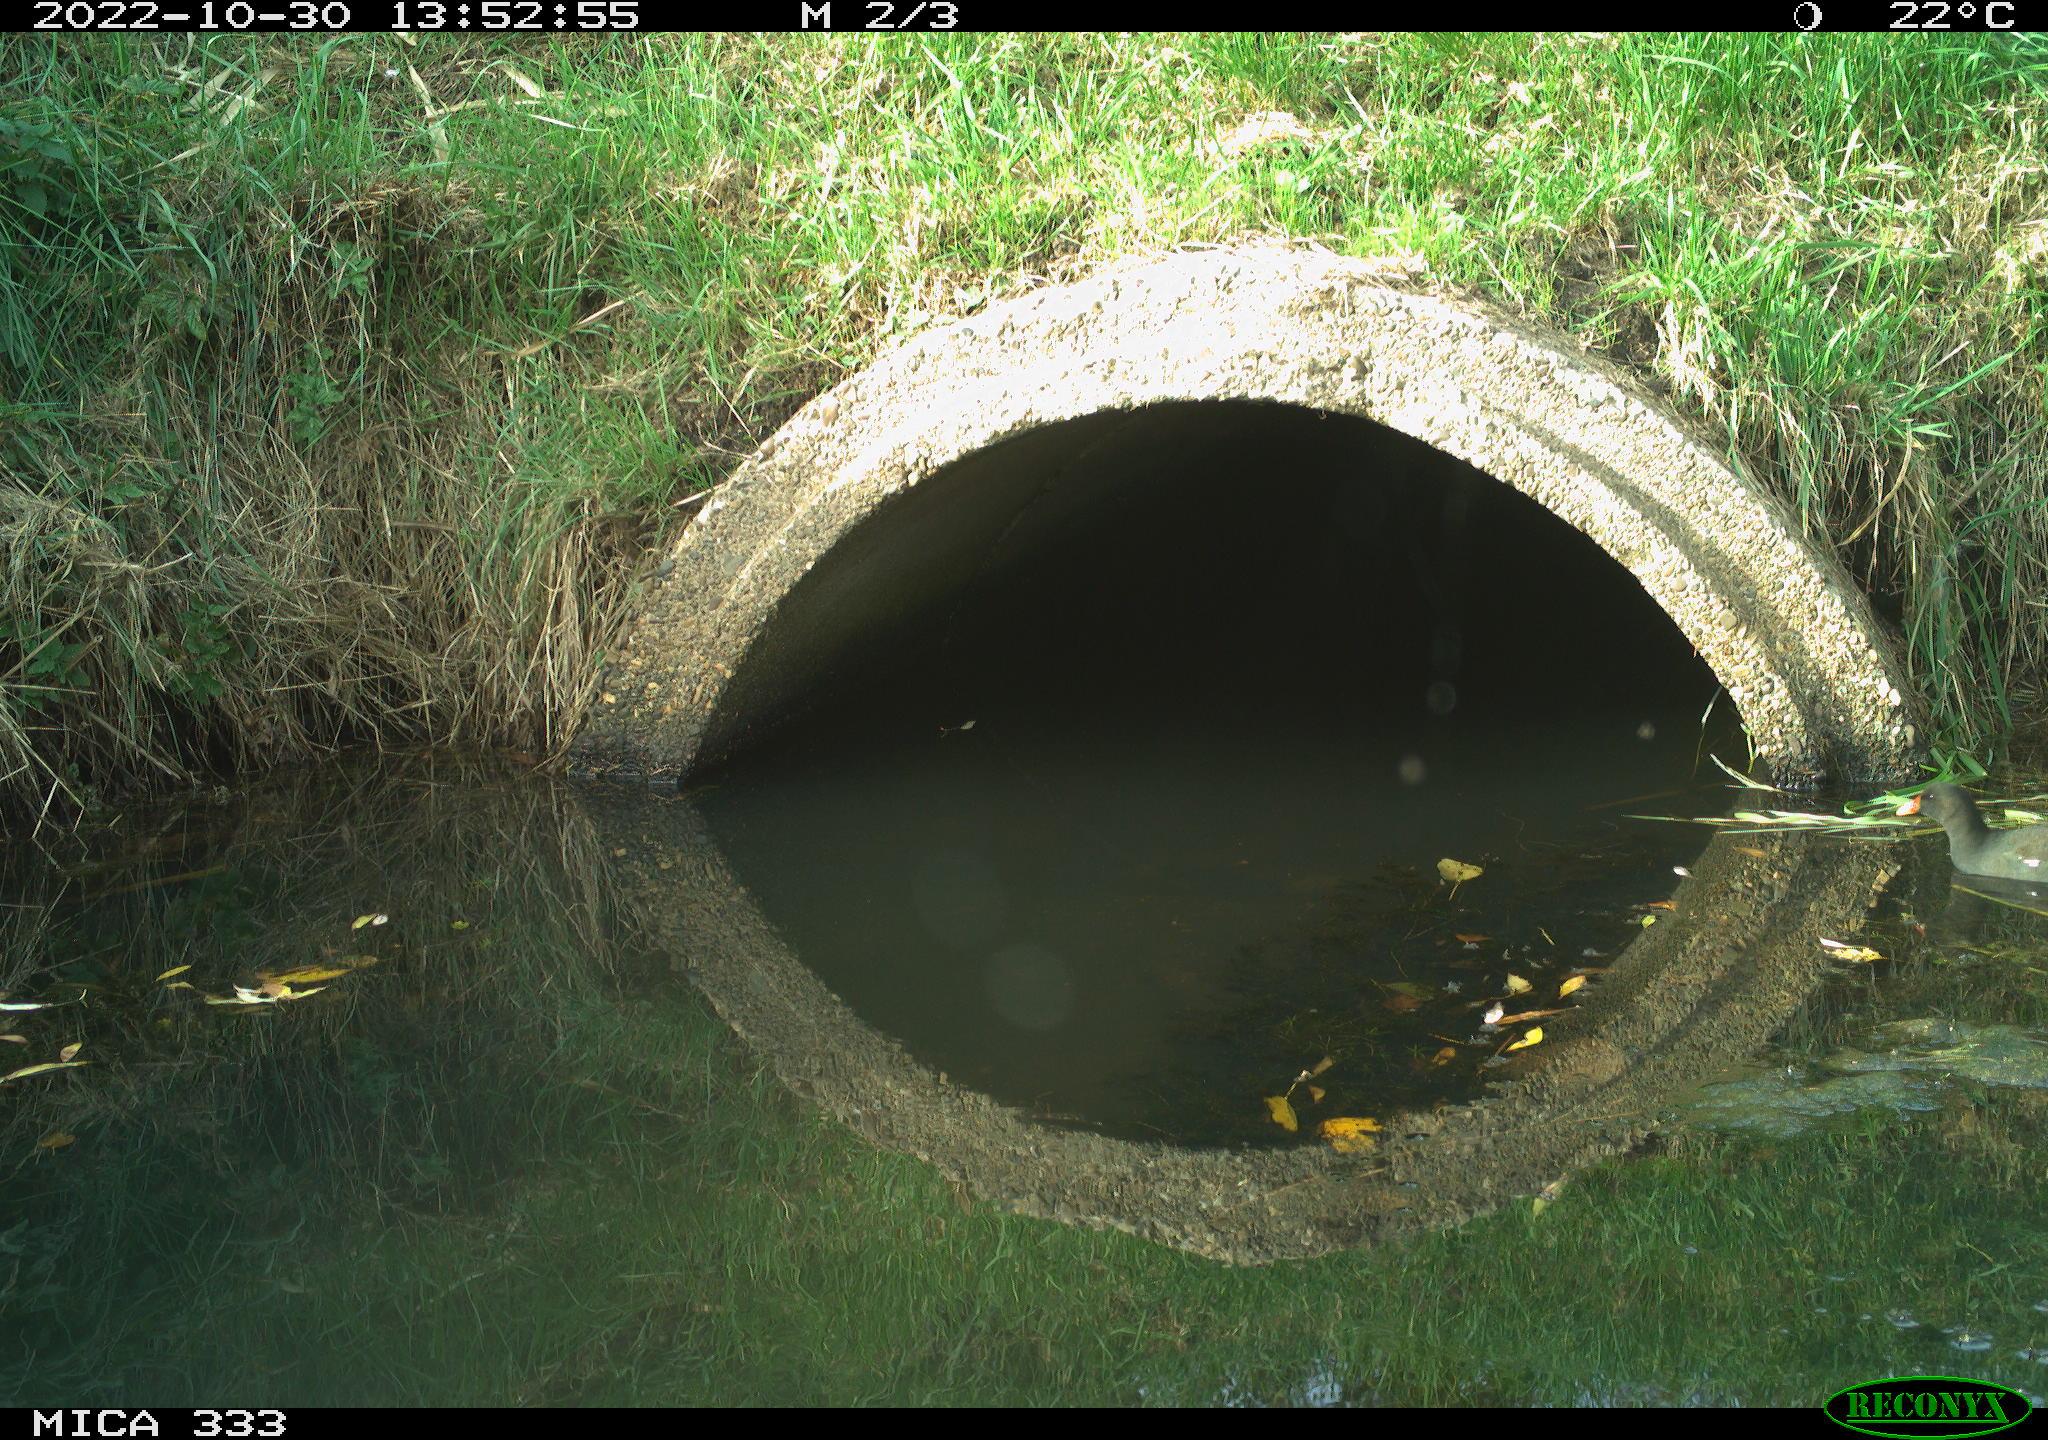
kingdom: Animalia
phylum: Chordata
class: Aves
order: Gruiformes
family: Rallidae
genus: Gallinula
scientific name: Gallinula chloropus
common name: Common moorhen
